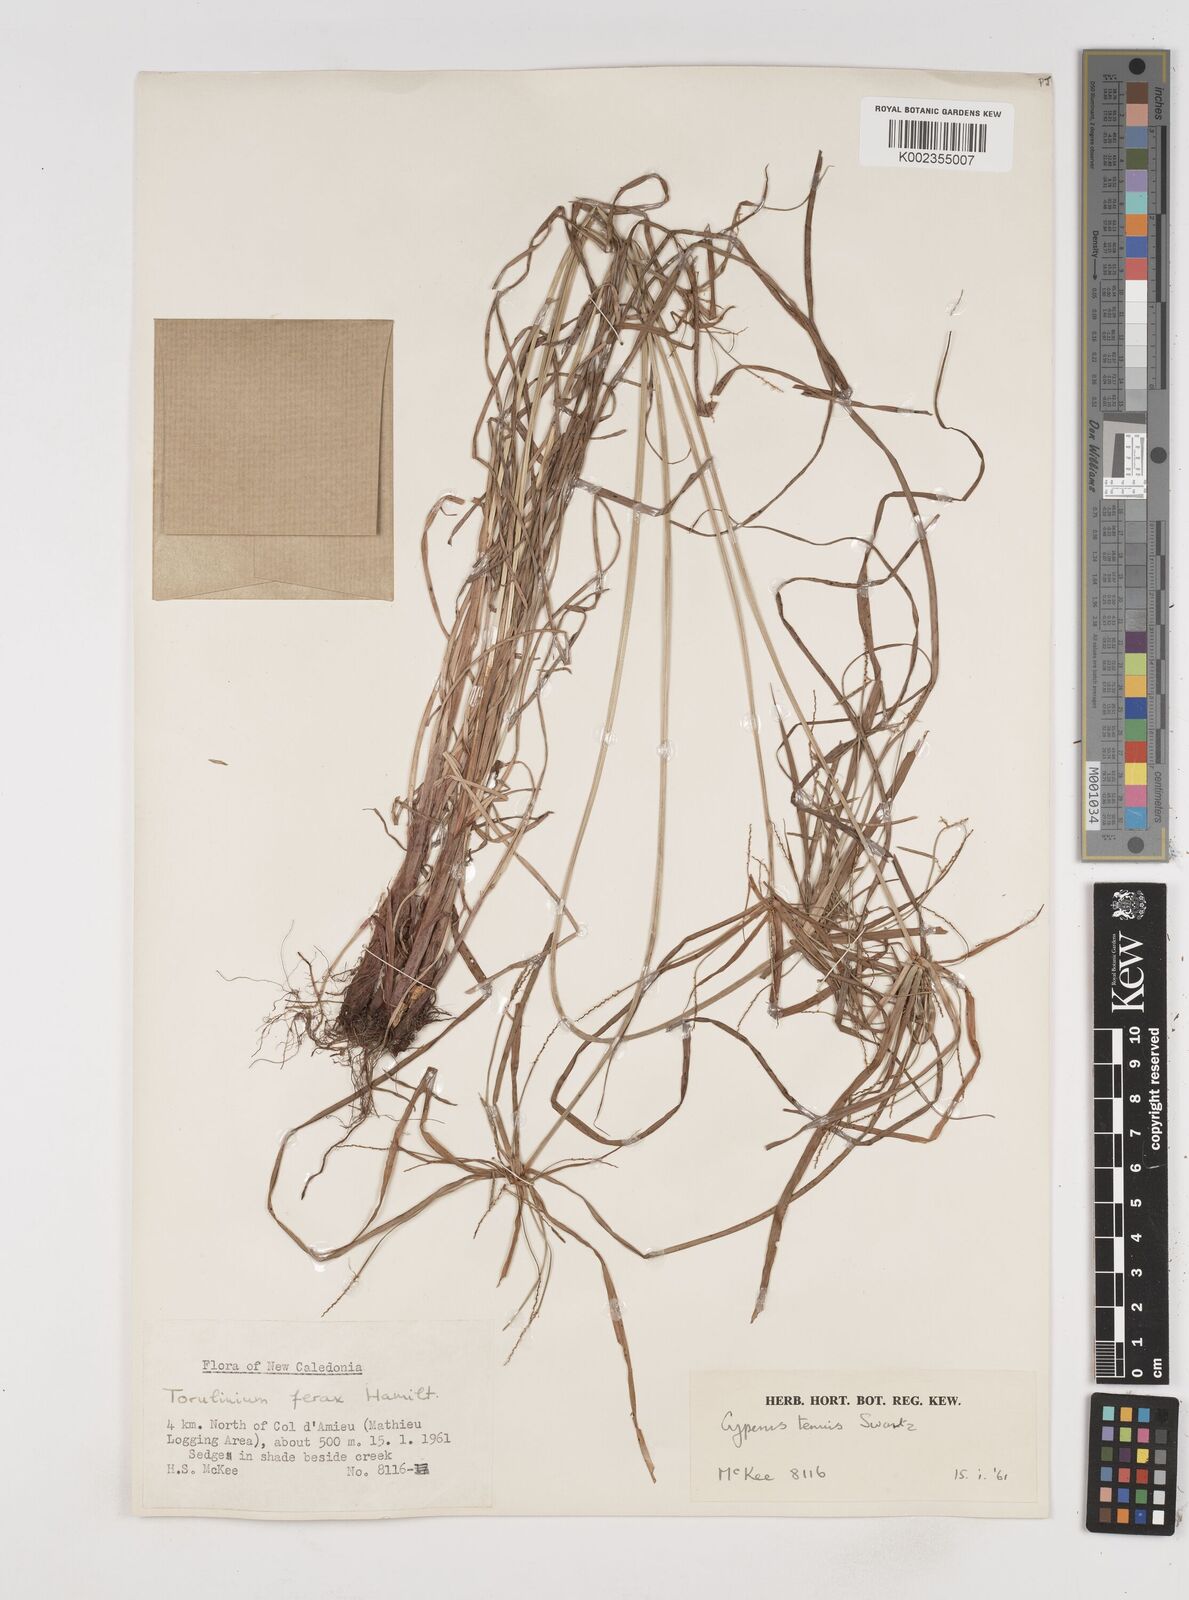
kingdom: Plantae
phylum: Tracheophyta
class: Liliopsida
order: Poales
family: Cyperaceae
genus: Cyperus
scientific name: Cyperus tenuis
